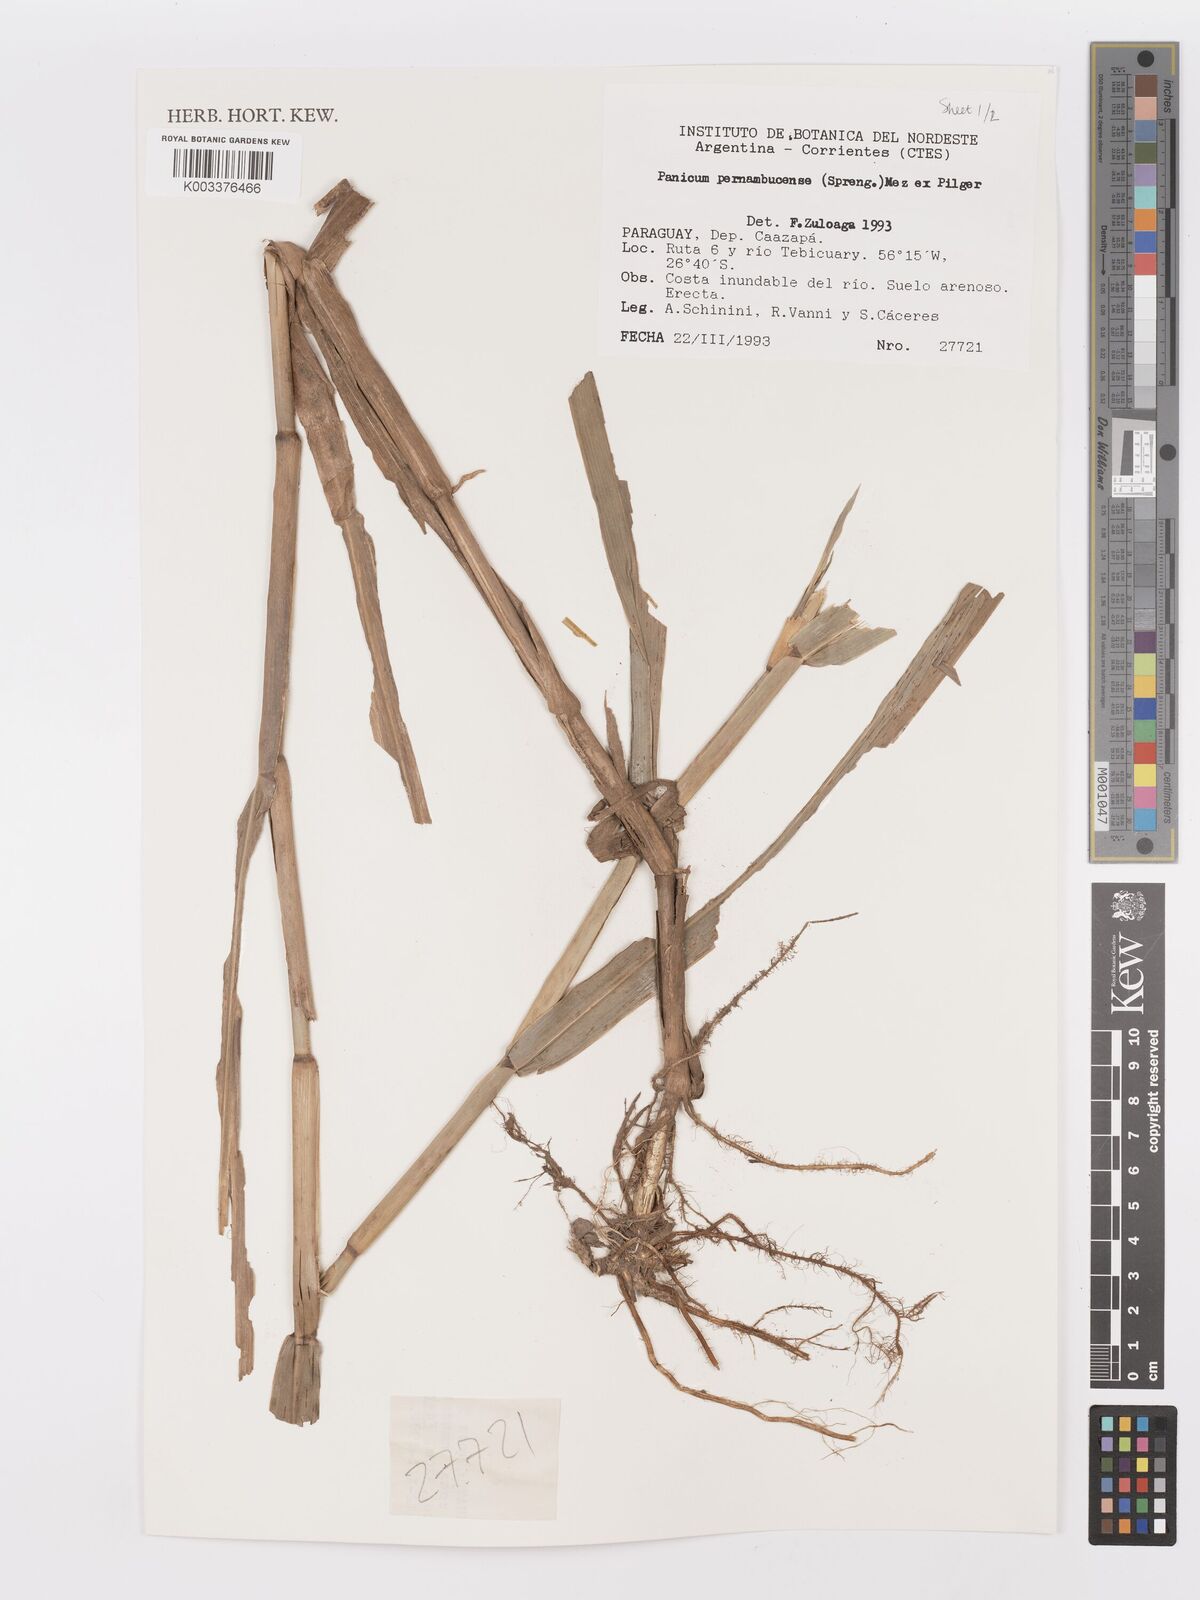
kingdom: Plantae
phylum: Tracheophyta
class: Liliopsida
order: Poales
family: Poaceae
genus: Hymenachne
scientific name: Hymenachne pernambucensis
